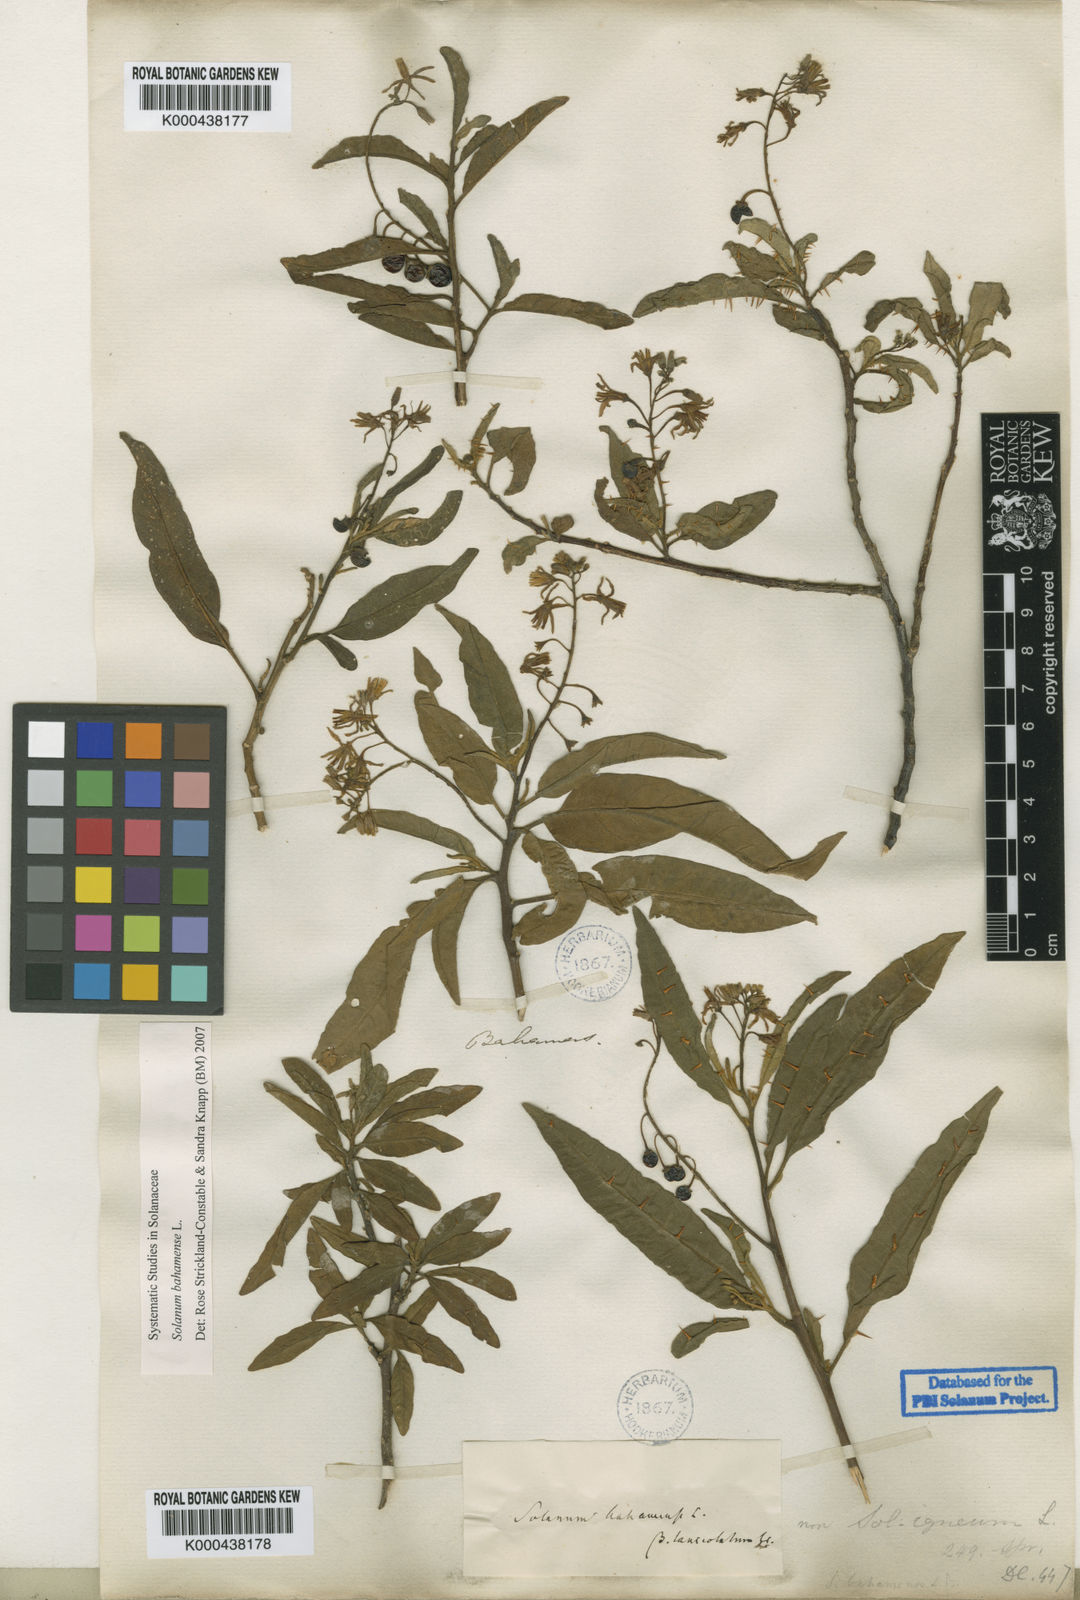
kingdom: Plantae
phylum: Tracheophyta
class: Magnoliopsida
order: Solanales
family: Solanaceae
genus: Solanum
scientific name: Solanum bahamense
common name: Canker-berry
